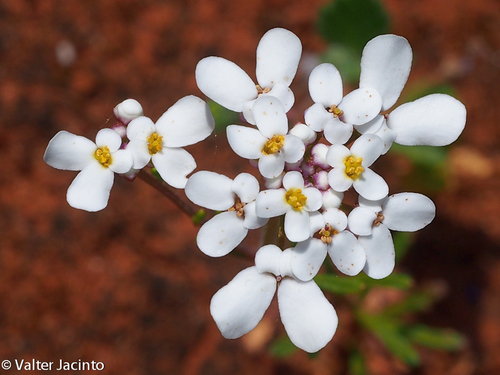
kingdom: Plantae
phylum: Tracheophyta
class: Magnoliopsida
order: Brassicales
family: Brassicaceae
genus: Iberis
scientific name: Iberis pectinata
